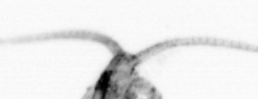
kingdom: Animalia
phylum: Arthropoda
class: Copepoda
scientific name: Copepoda
